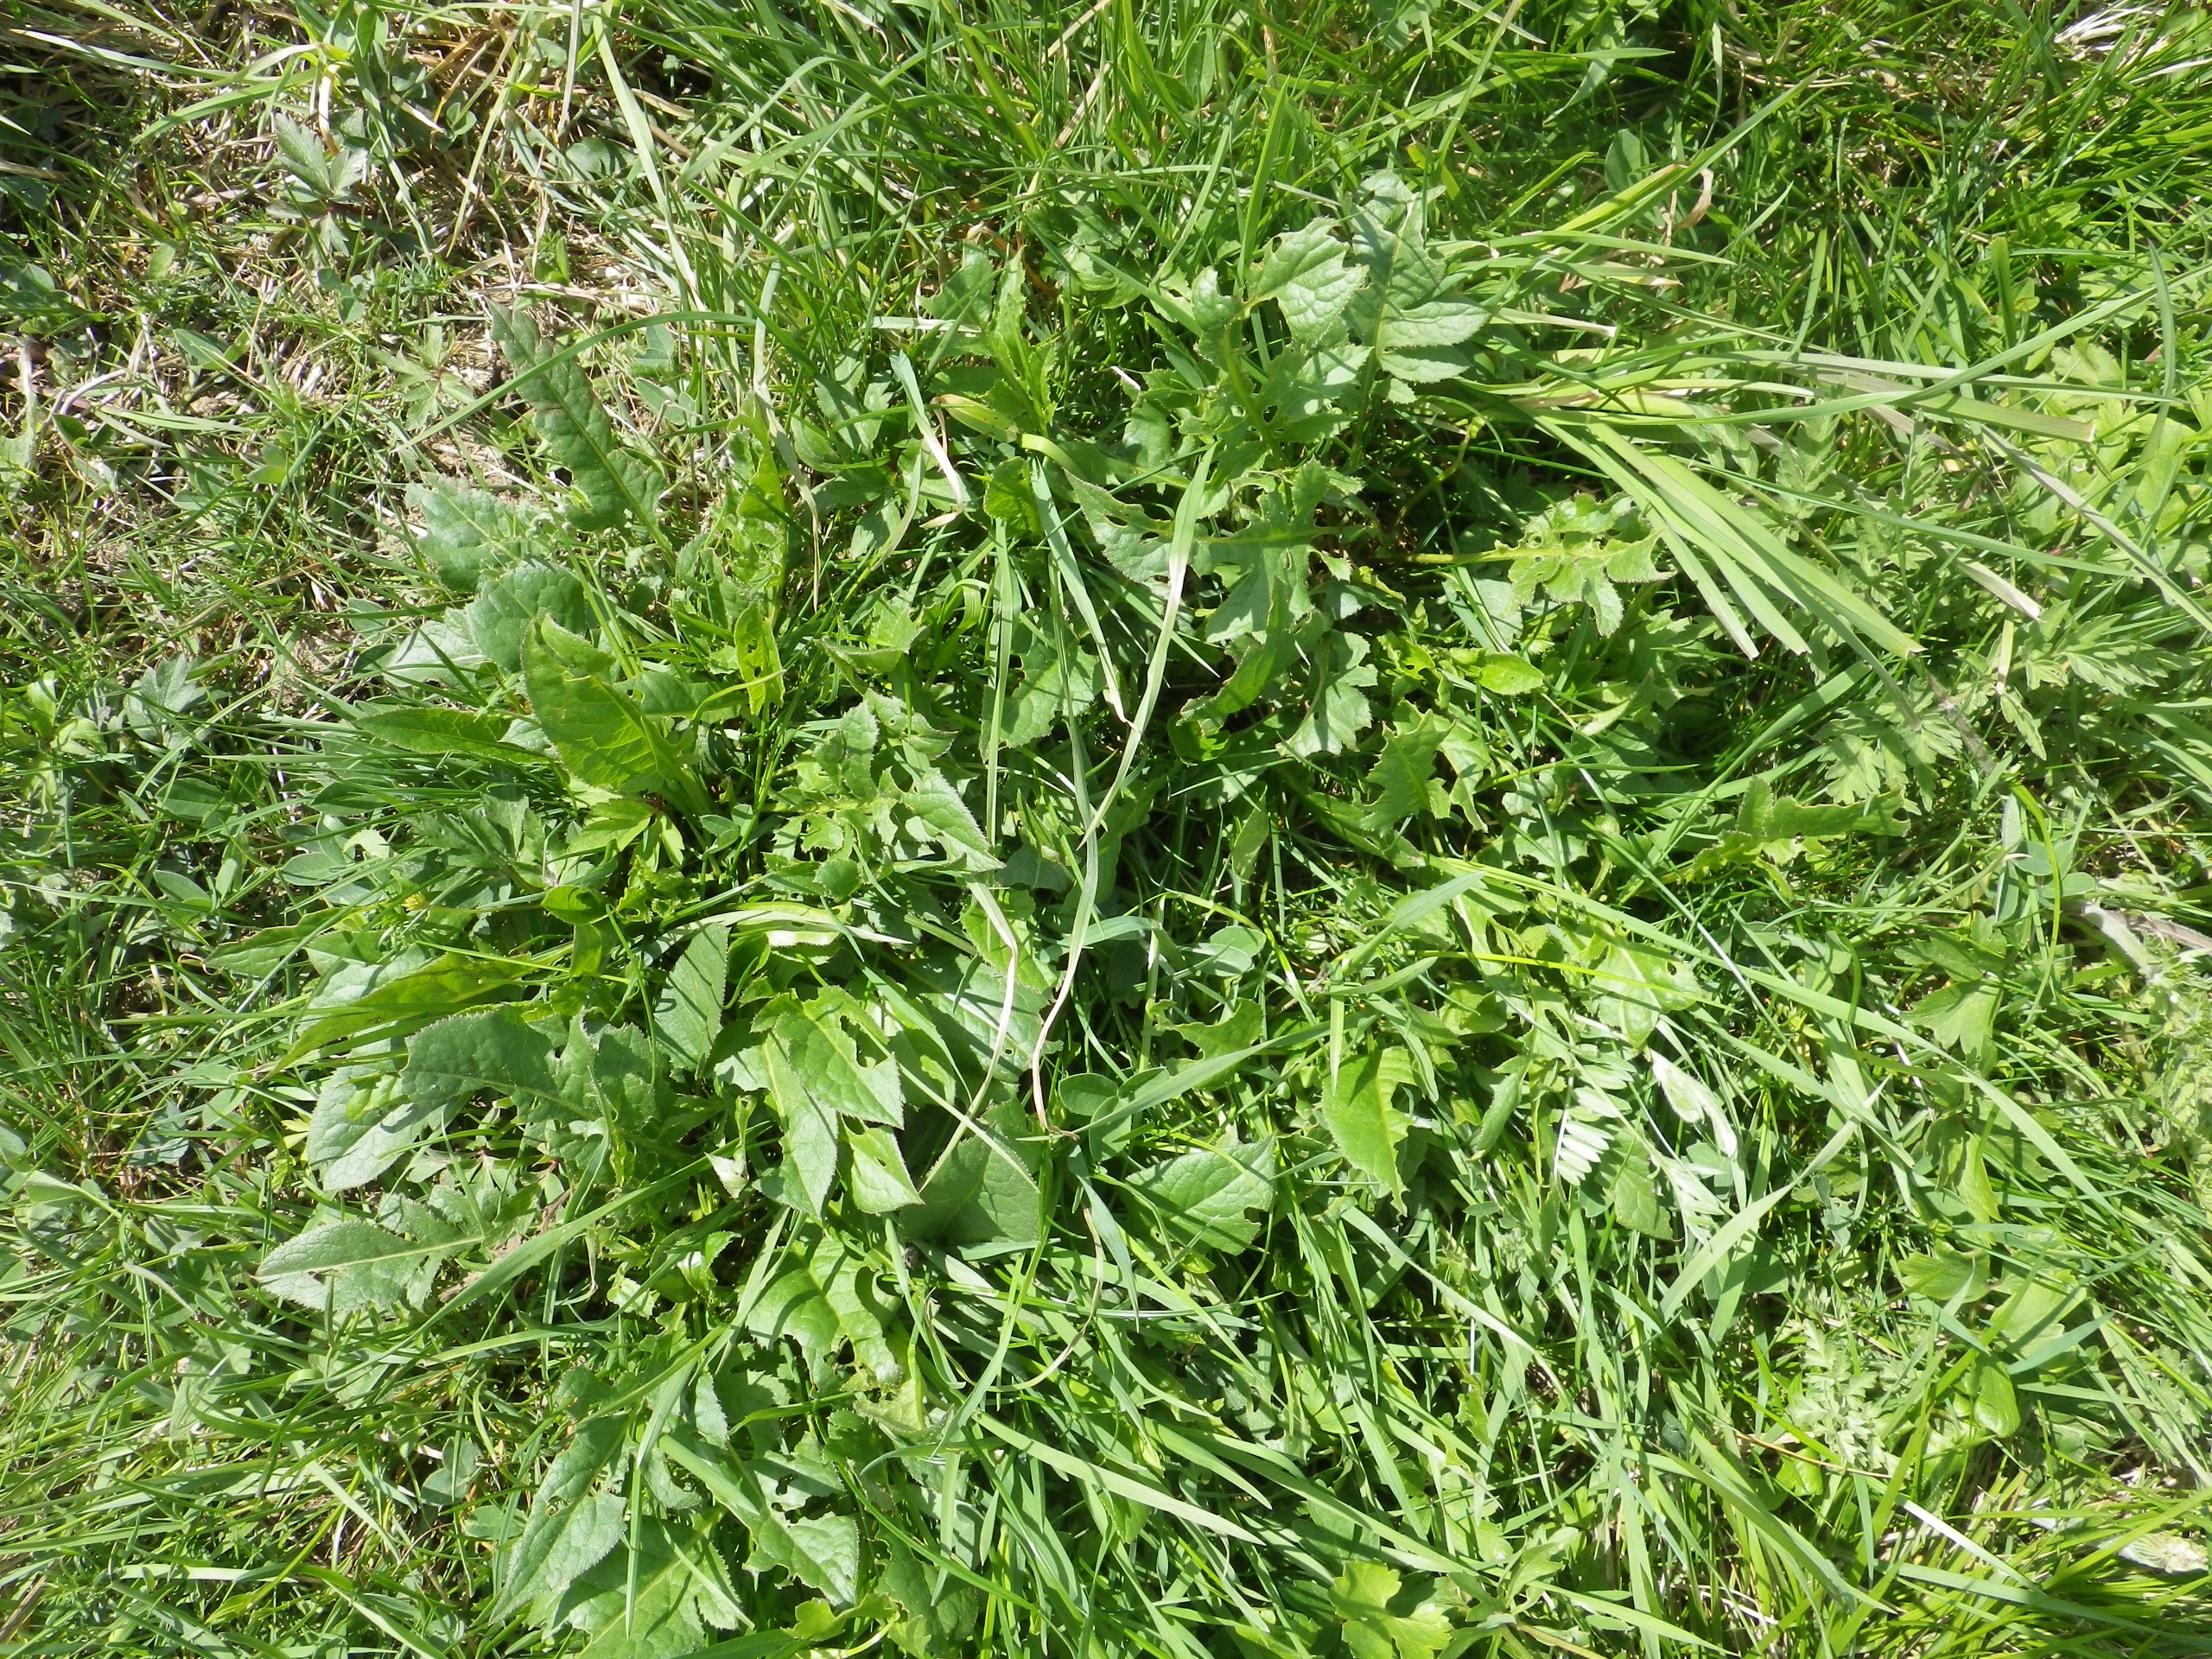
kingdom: Plantae
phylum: Tracheophyta
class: Magnoliopsida
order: Asterales
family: Asteraceae
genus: Serratula
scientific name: Serratula tinctoria
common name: Eng-skær
